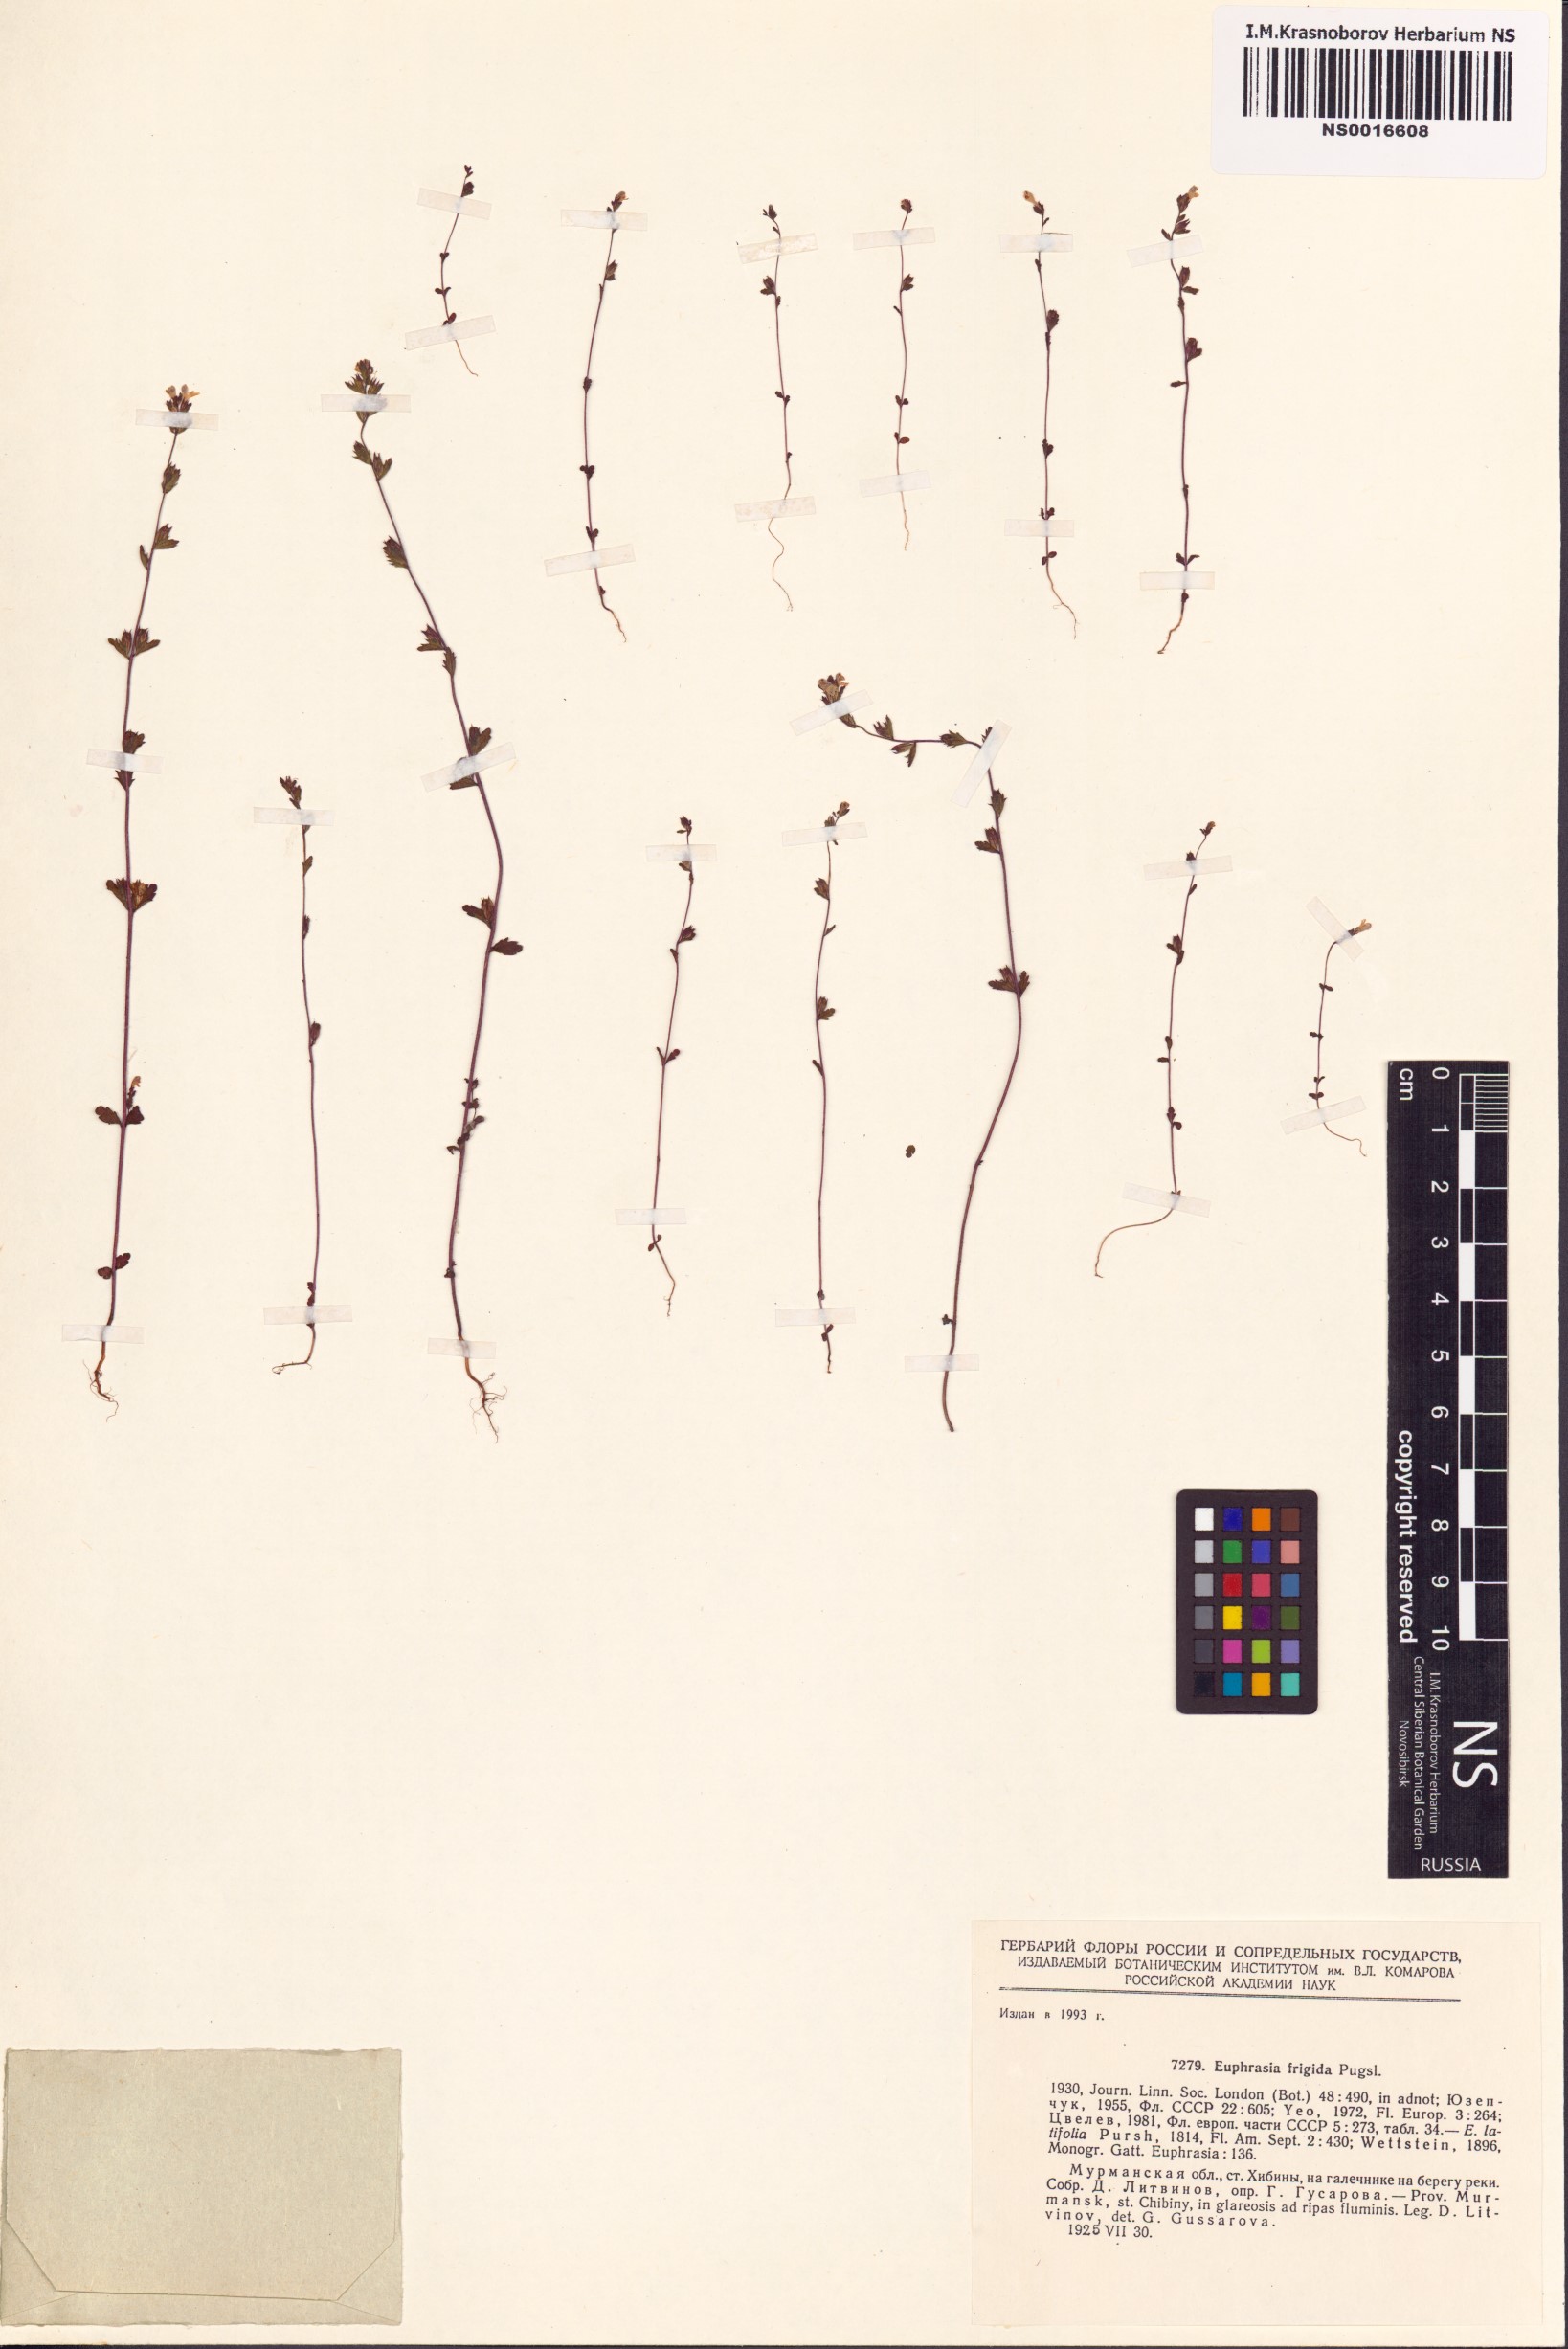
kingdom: Plantae
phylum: Tracheophyta
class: Magnoliopsida
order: Lamiales
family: Orobanchaceae
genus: Euphrasia
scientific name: Euphrasia frigida
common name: An eyebright
